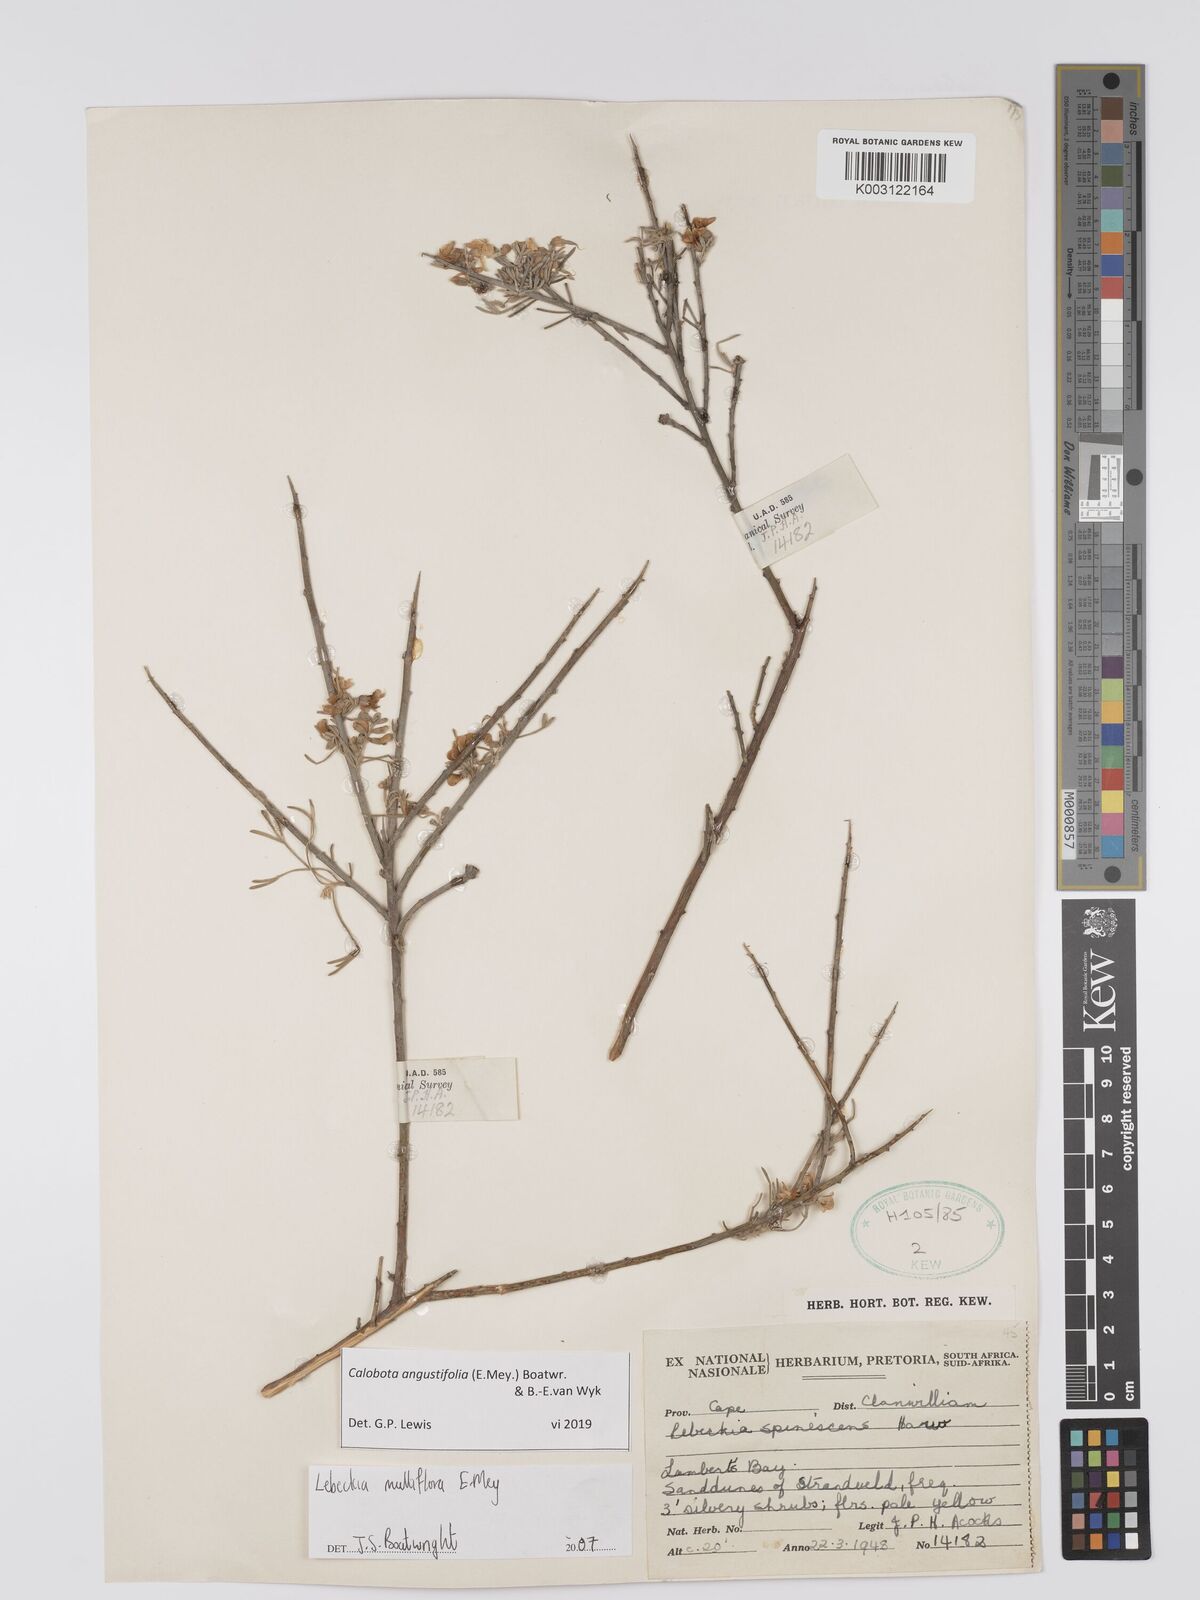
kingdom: Plantae
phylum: Tracheophyta
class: Magnoliopsida
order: Fabales
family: Fabaceae
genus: Calobota
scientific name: Calobota angustifolia
